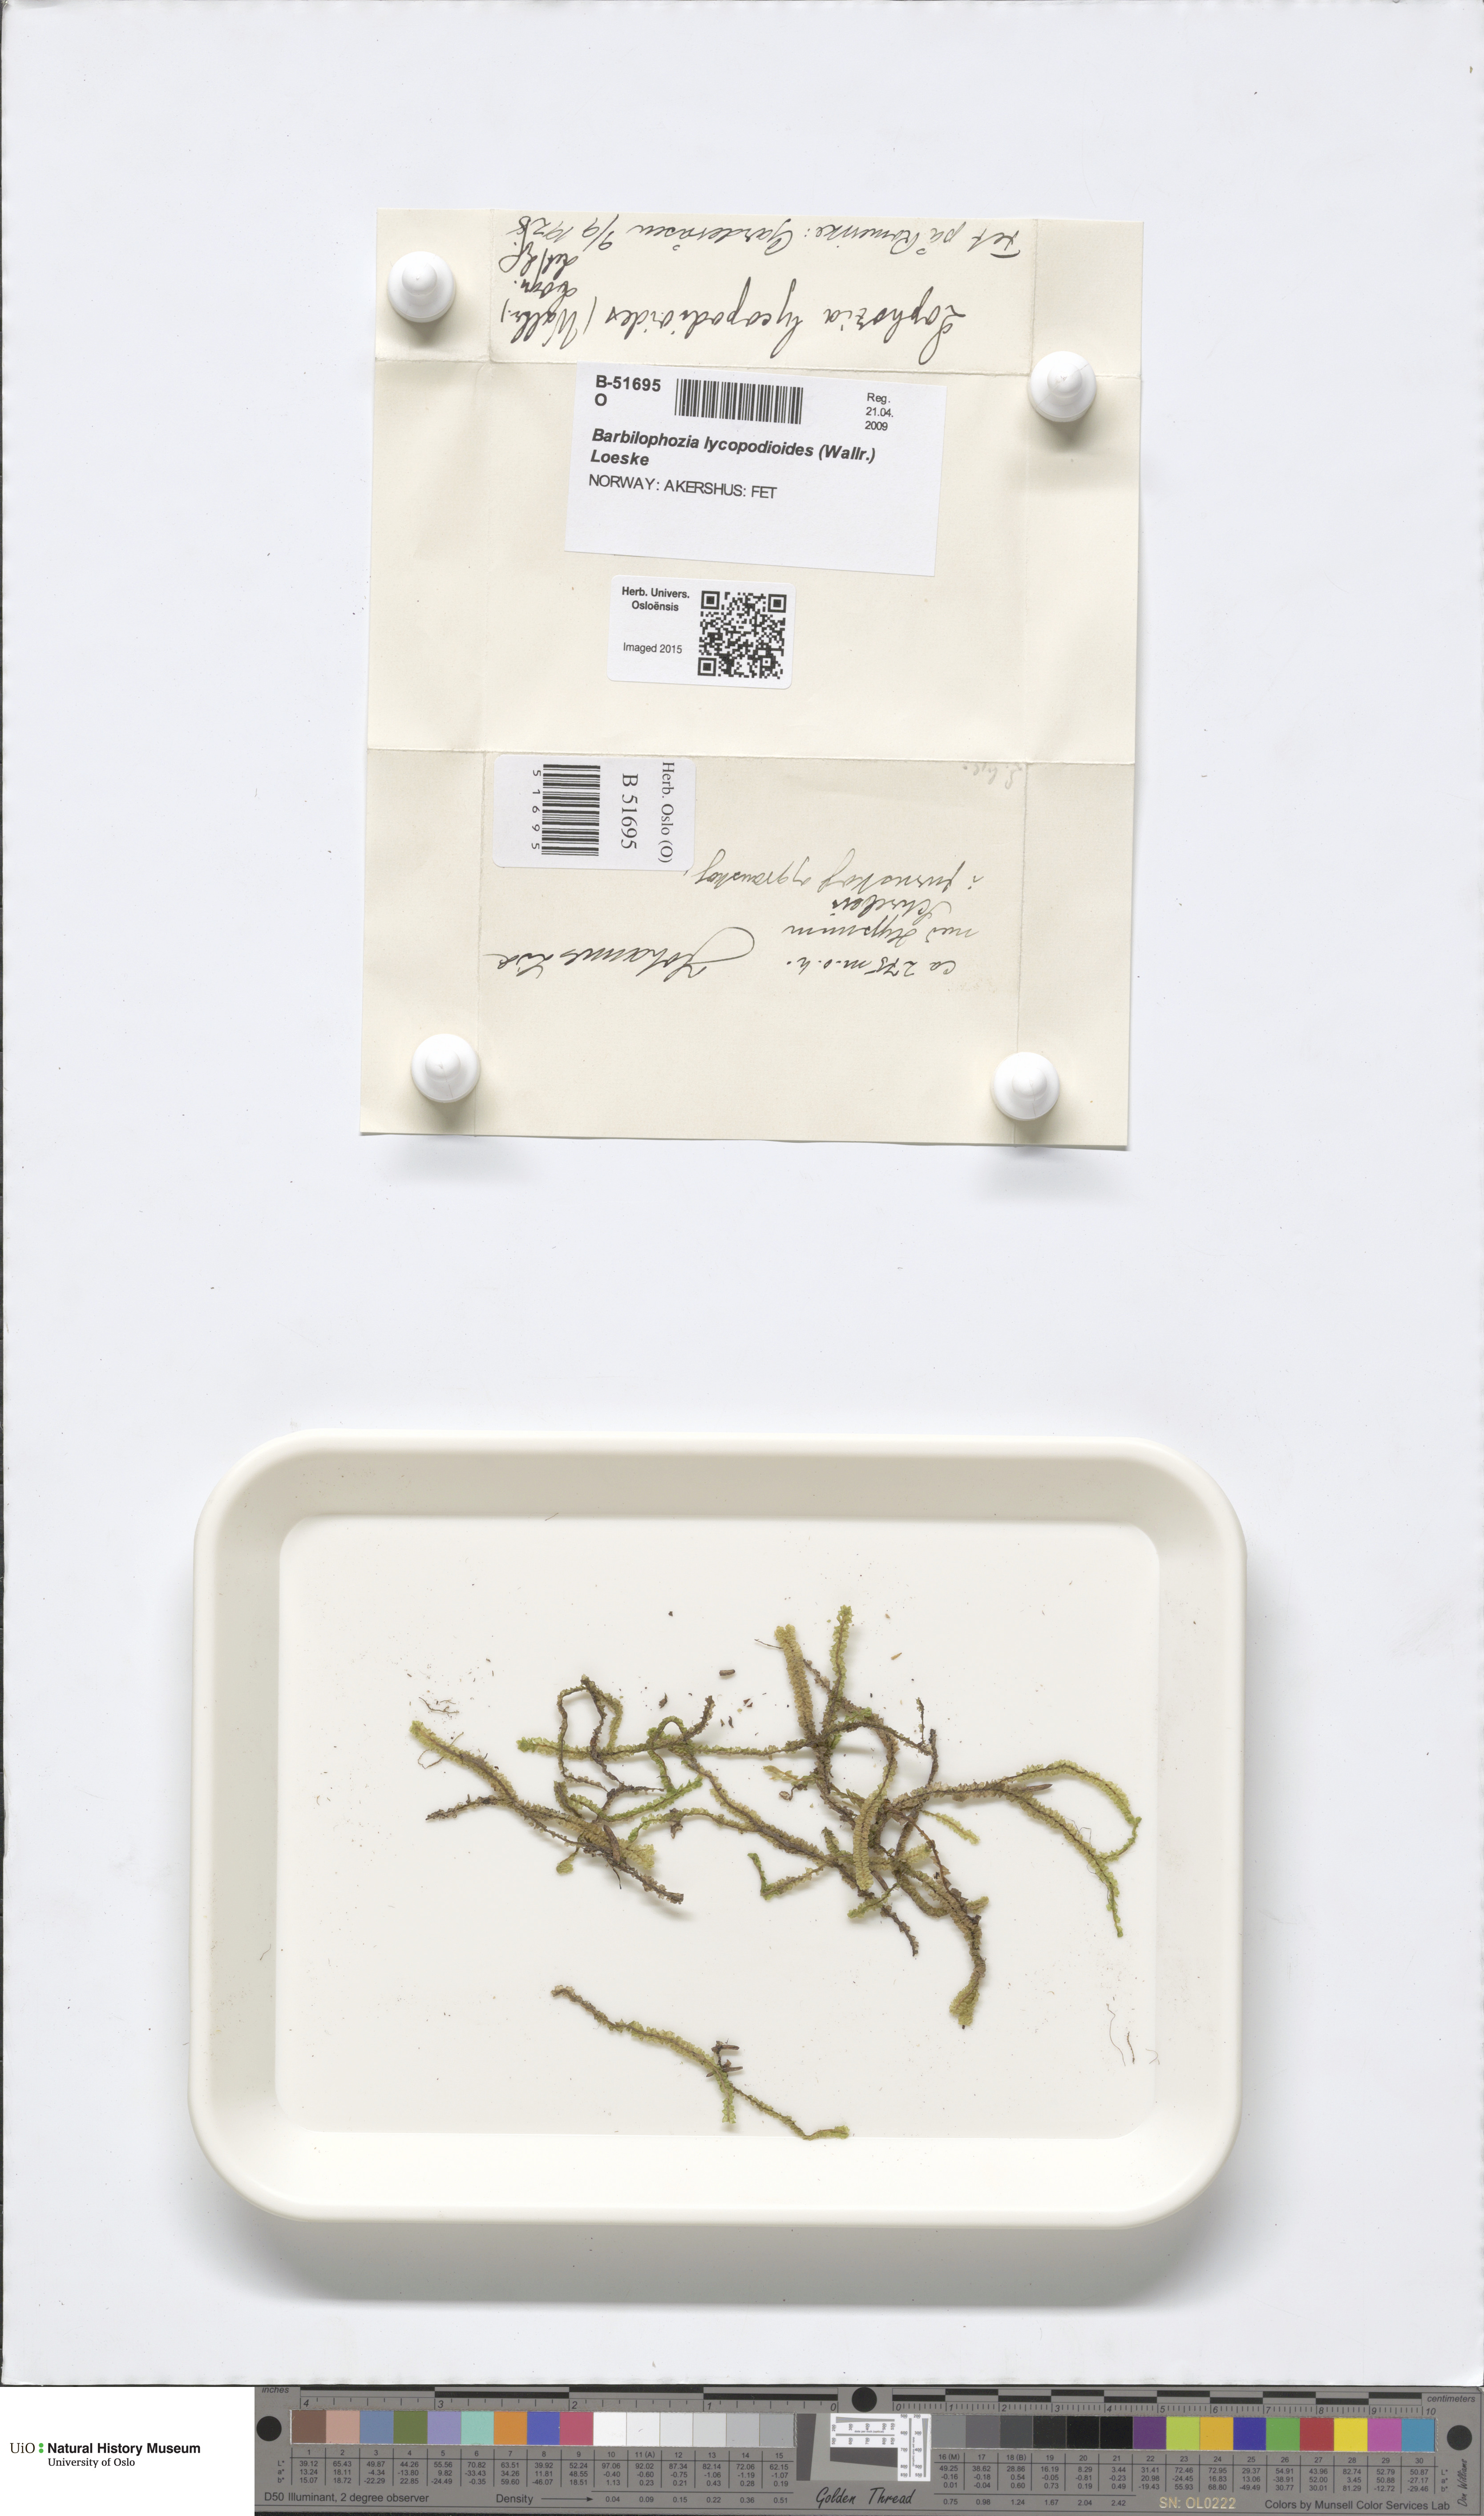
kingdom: Plantae
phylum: Marchantiophyta
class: Jungermanniopsida
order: Jungermanniales
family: Anastrophyllaceae
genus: Barbilophozia
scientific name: Barbilophozia lycopodioides
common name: Greater pawwort
